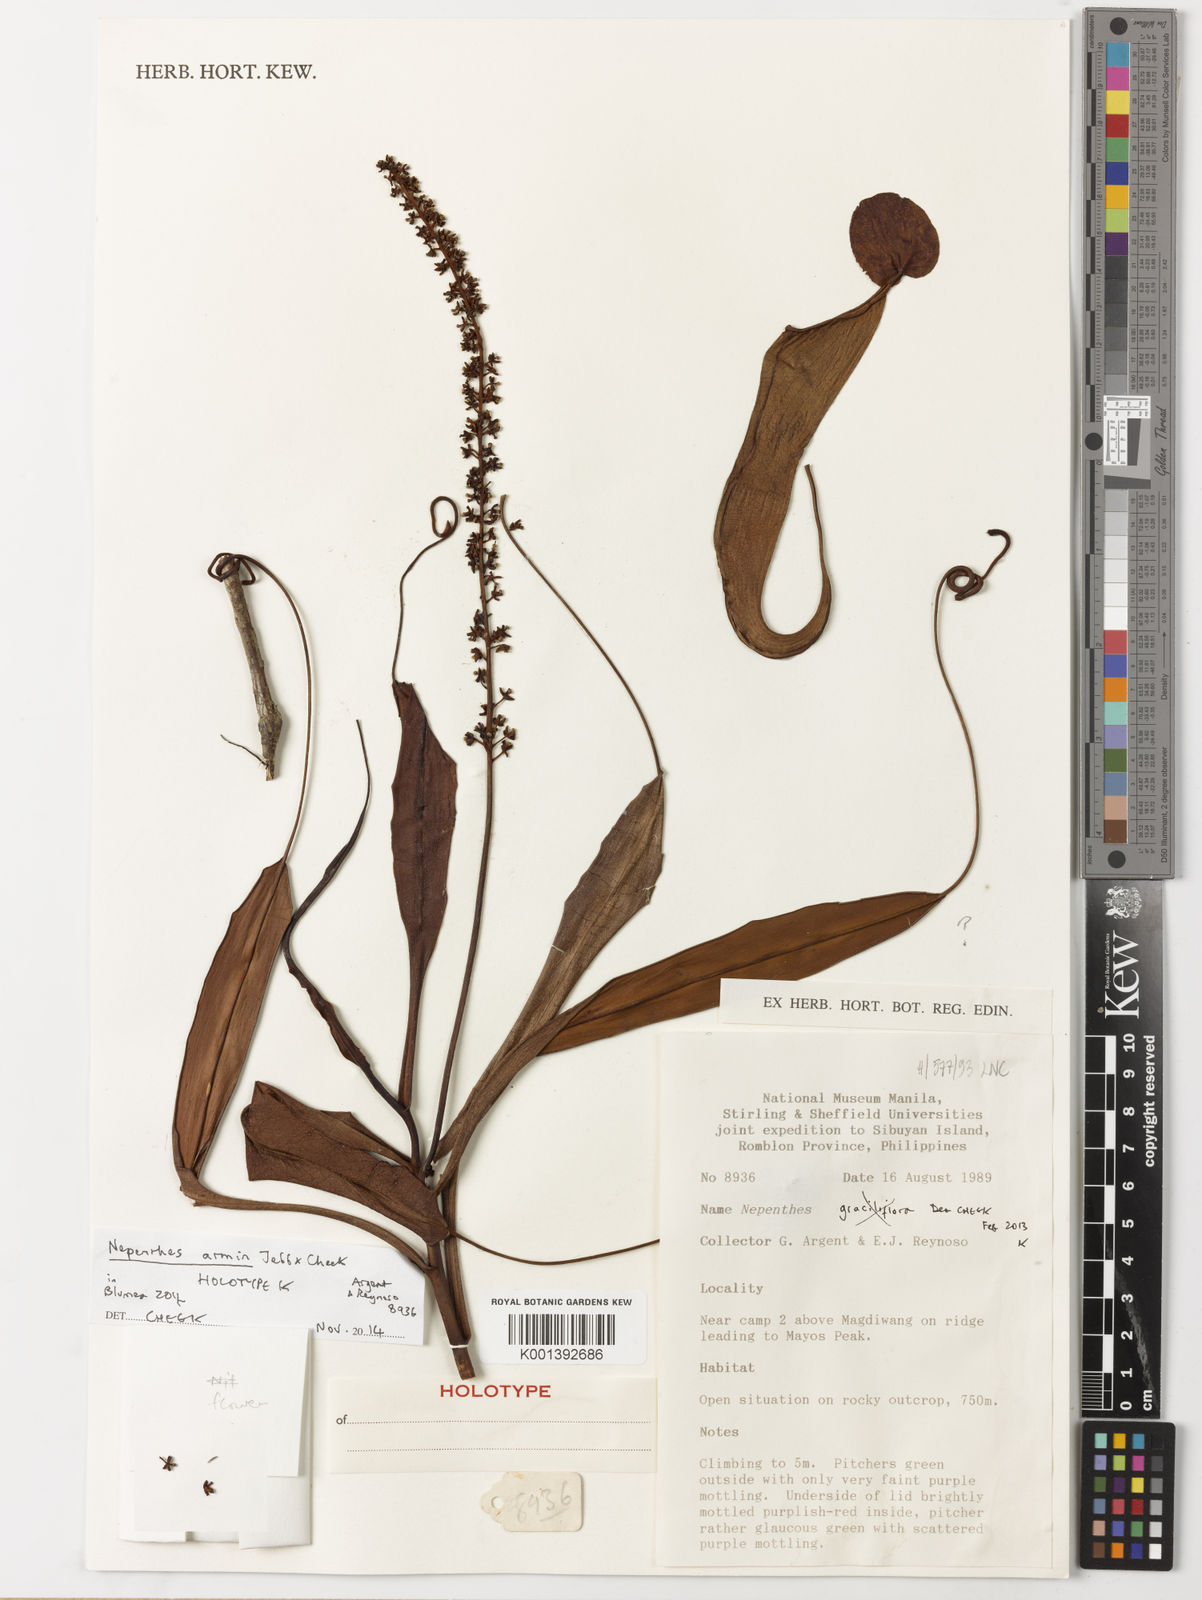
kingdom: Plantae
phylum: Tracheophyta
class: Magnoliopsida
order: Caryophyllales
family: Nepenthaceae
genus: Nepenthes
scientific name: Nepenthes armin
